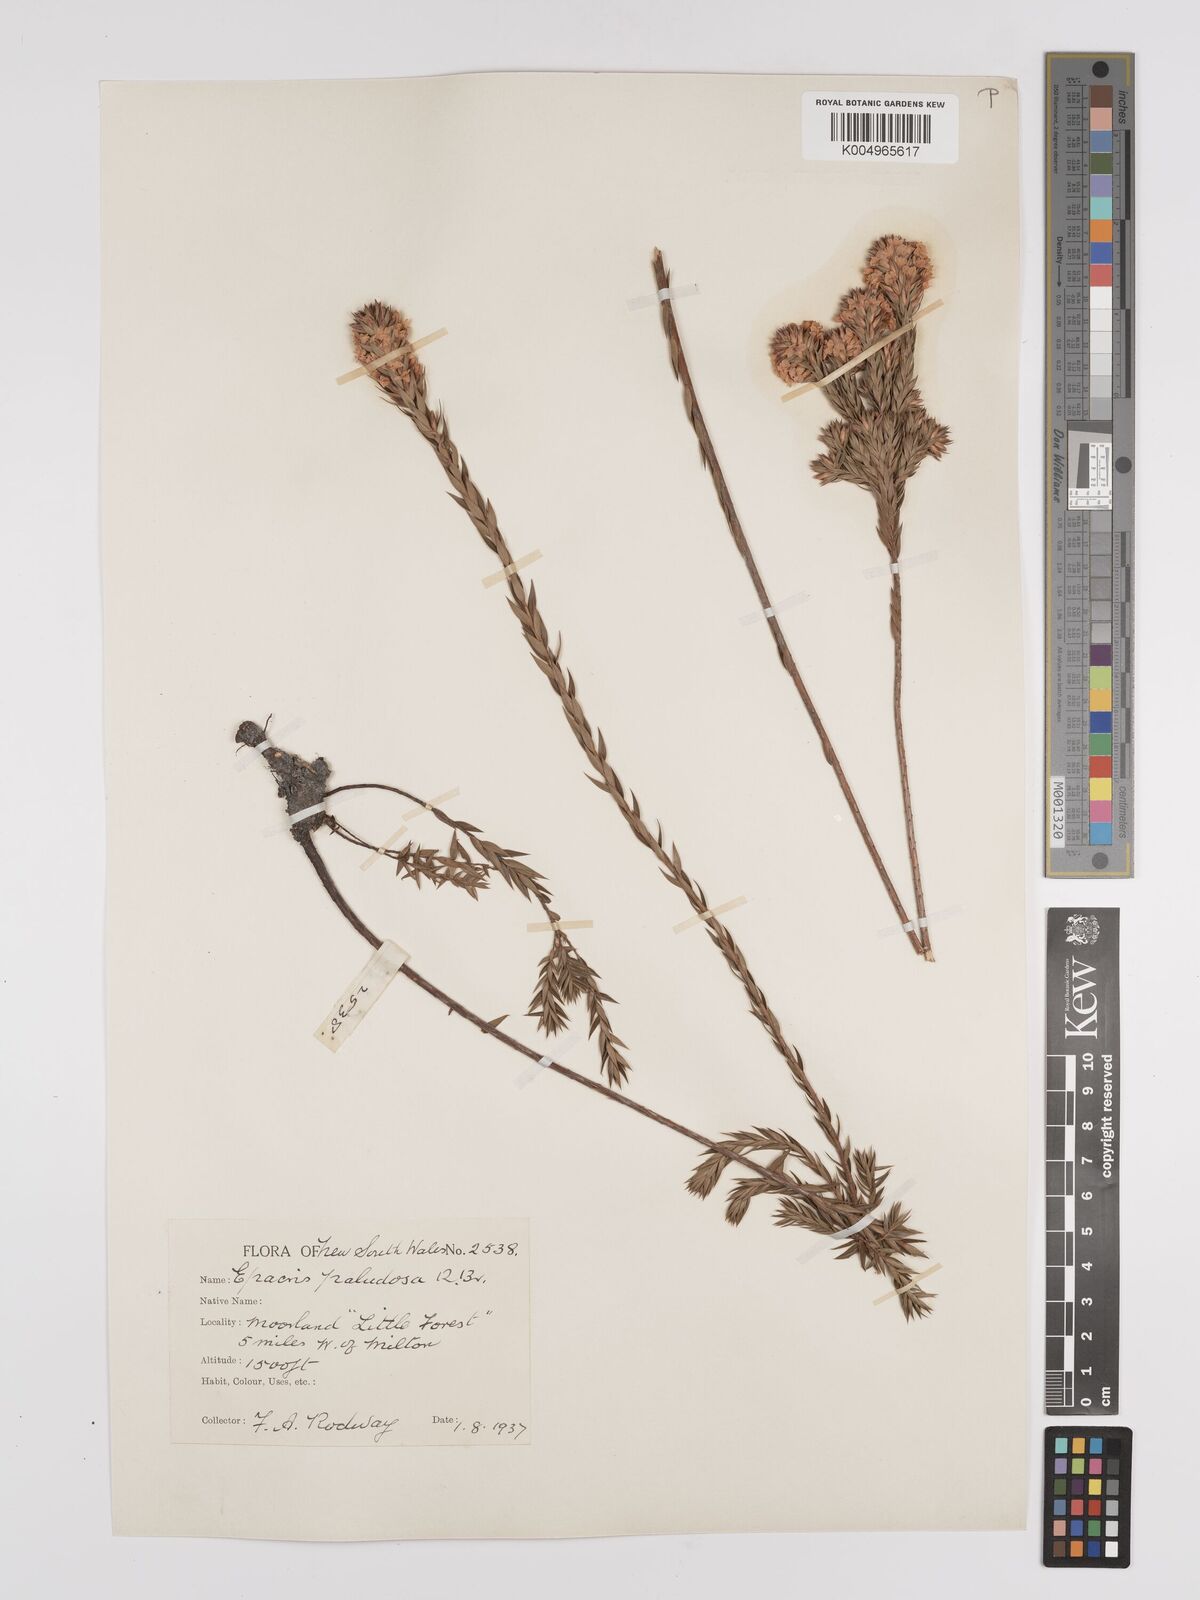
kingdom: Plantae
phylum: Tracheophyta
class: Magnoliopsida
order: Ericales
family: Ericaceae
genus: Epacris
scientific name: Epacris paludosa
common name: Swamp-heath
